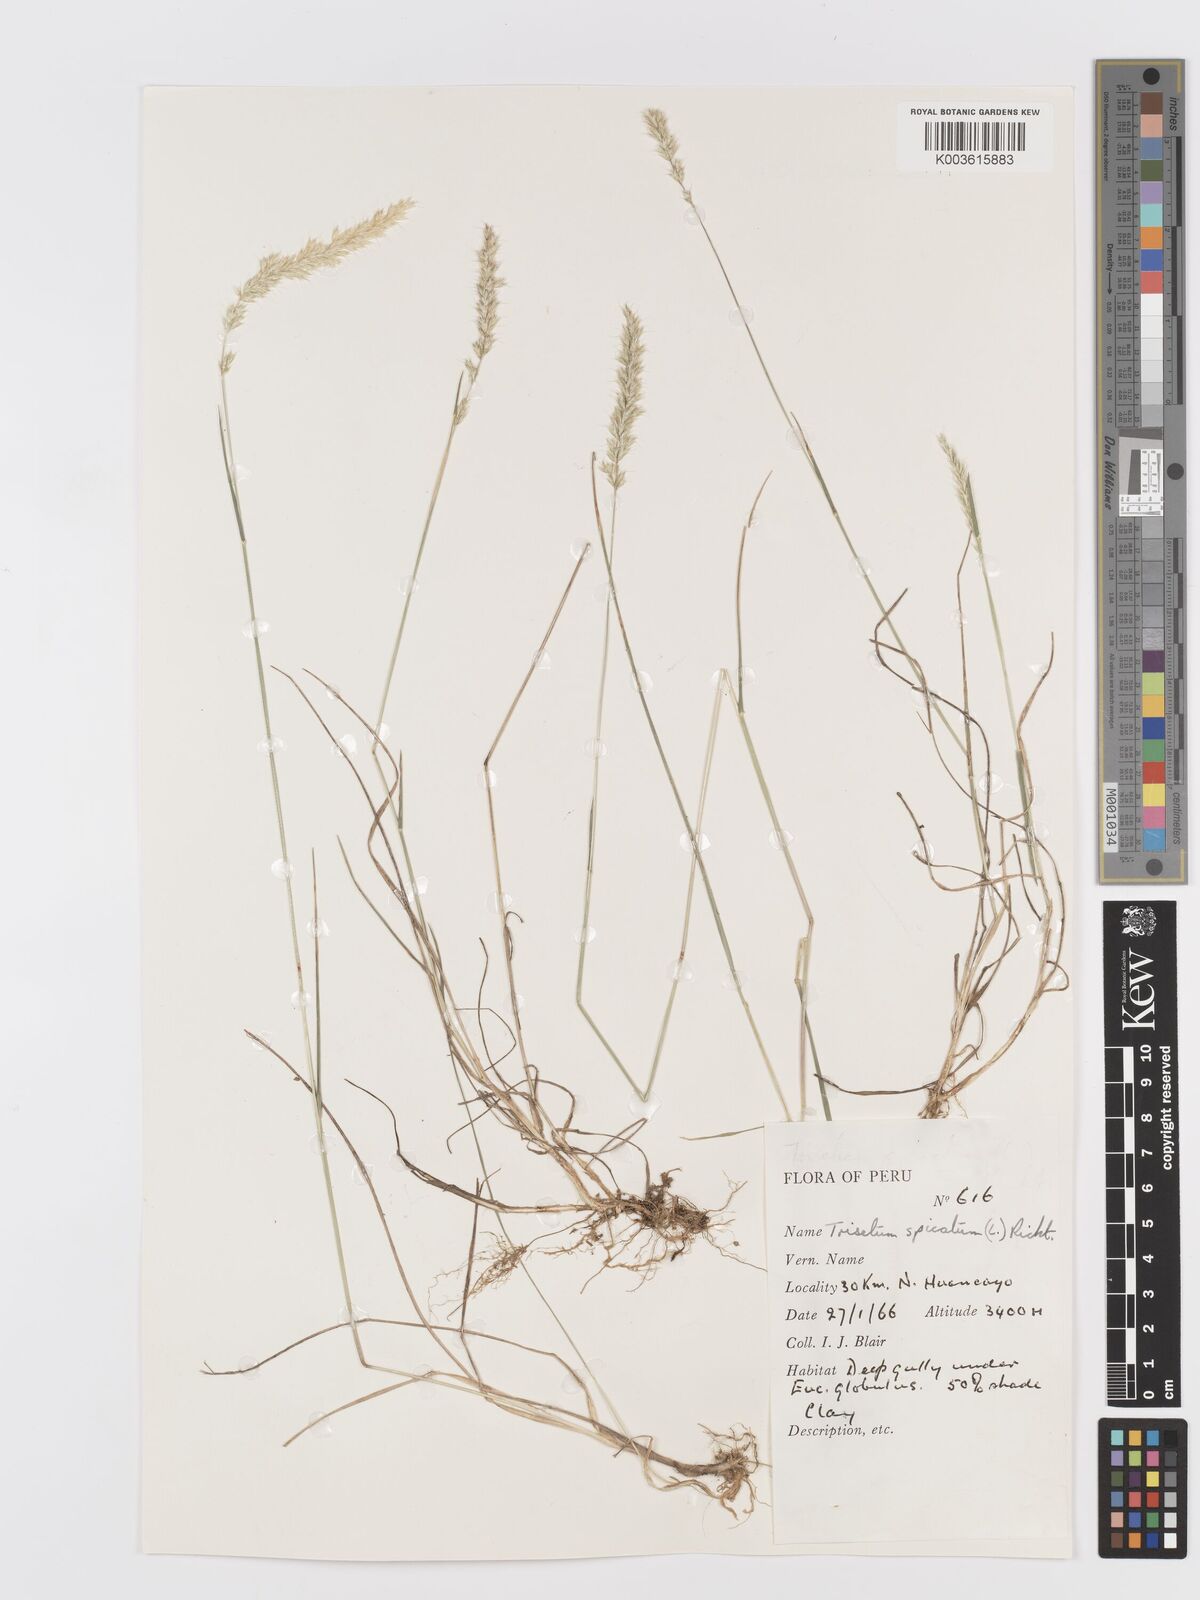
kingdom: Plantae
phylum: Tracheophyta
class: Liliopsida
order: Poales
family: Poaceae
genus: Koeleria
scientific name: Koeleria spicata
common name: Mountain trisetum
